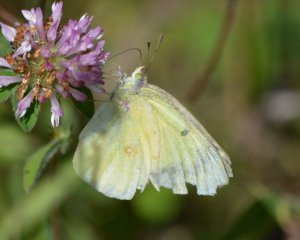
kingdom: Animalia
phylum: Arthropoda
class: Insecta
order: Lepidoptera
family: Pieridae
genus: Colias
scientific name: Colias philodice
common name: Clouded Sulphur
